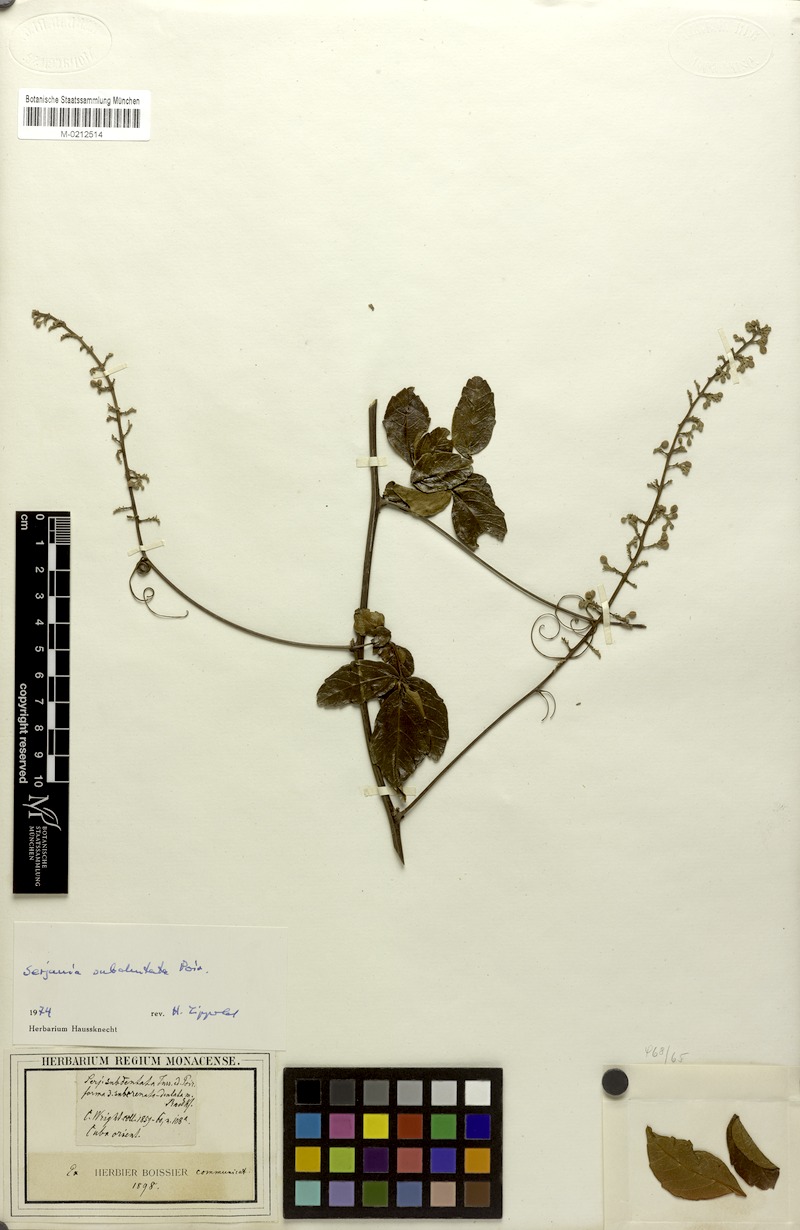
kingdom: Plantae
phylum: Tracheophyta
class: Magnoliopsida
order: Sapindales
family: Sapindaceae
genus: Serjania
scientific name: Serjania subdentata
